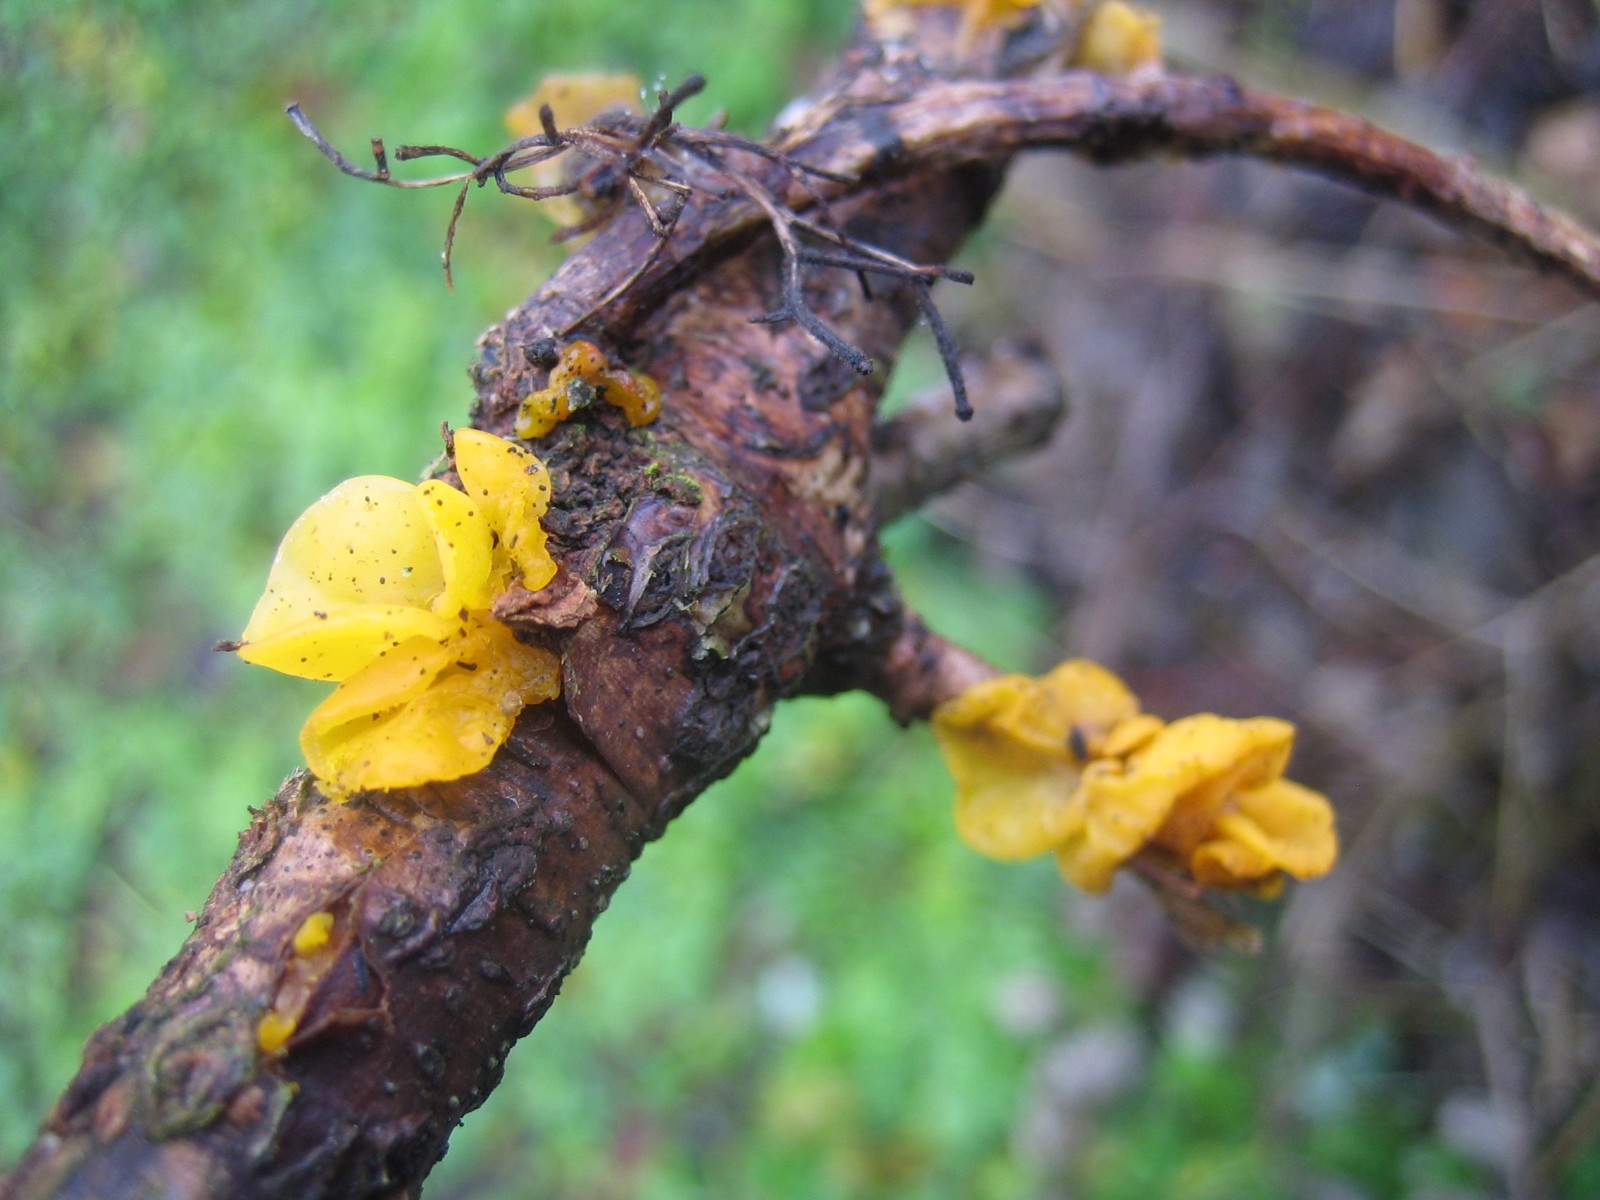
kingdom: Fungi
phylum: Basidiomycota
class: Tremellomycetes
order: Tremellales
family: Tremellaceae
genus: Tremella
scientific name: Tremella mesenterica
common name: gul bævresvamp
